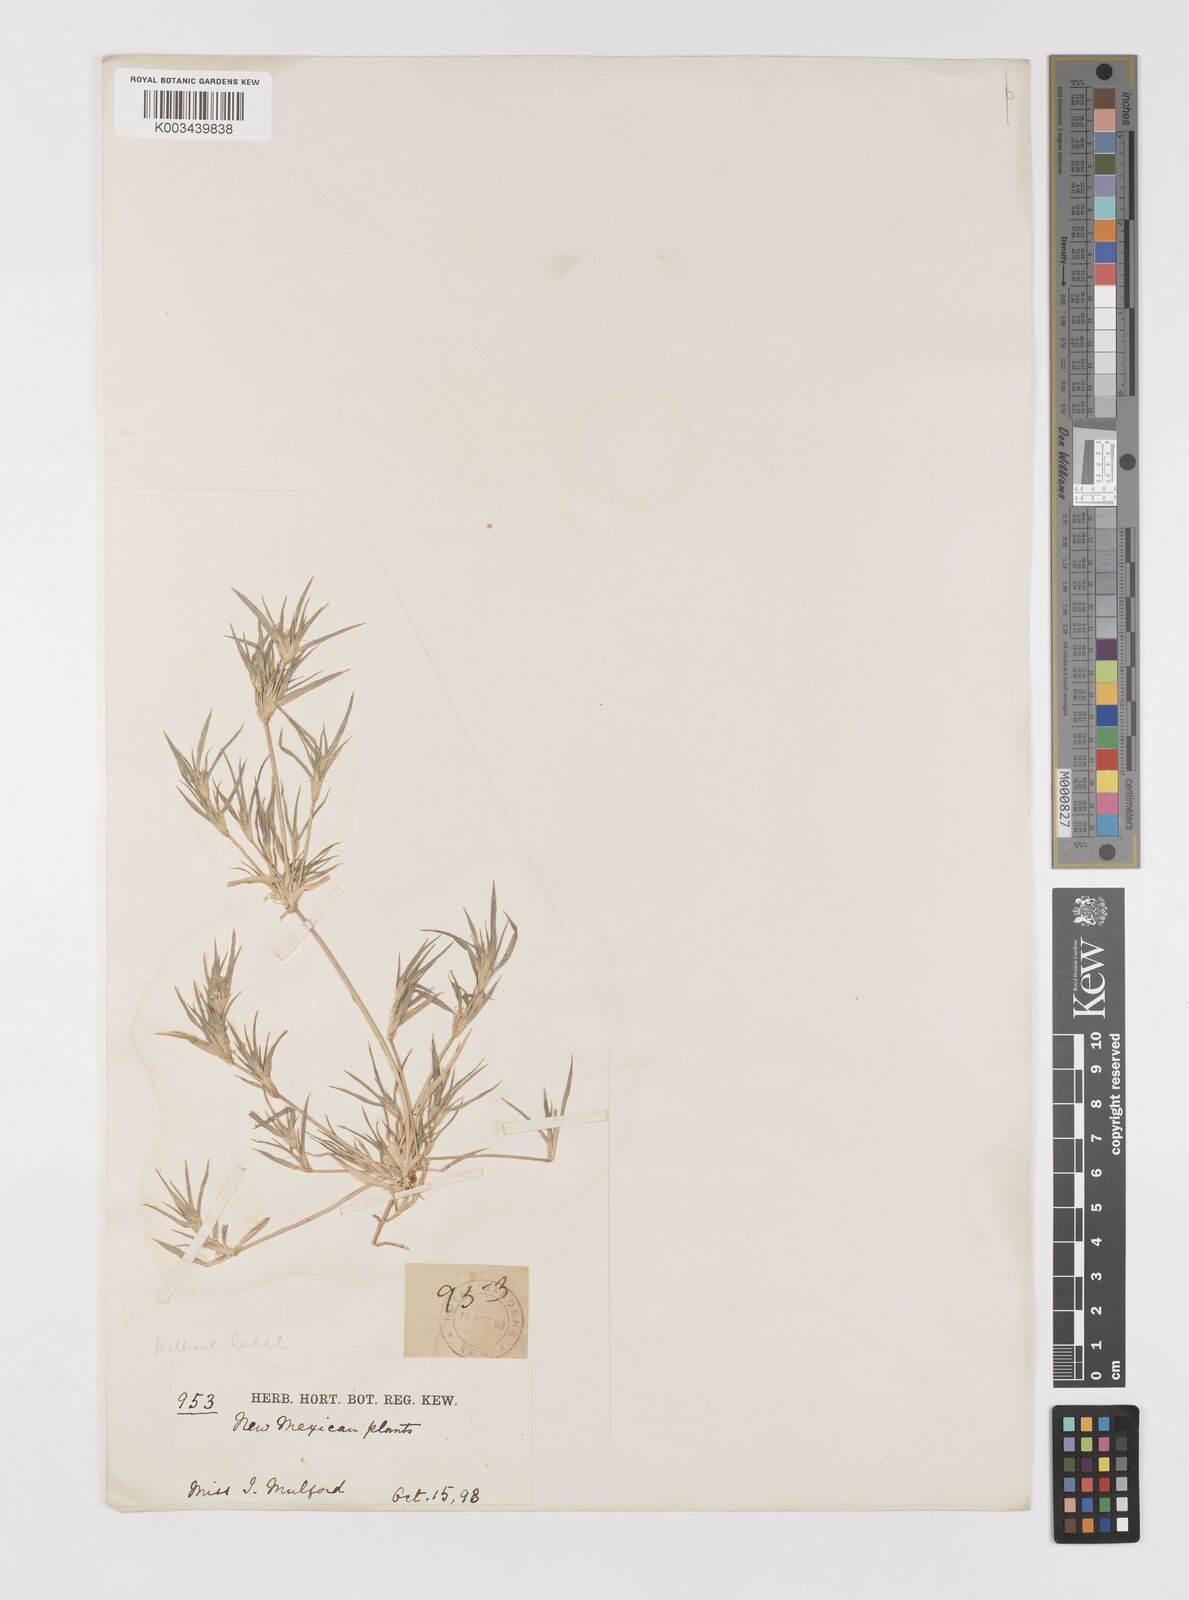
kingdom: Plantae
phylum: Tracheophyta
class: Liliopsida
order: Poales
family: Poaceae
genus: Bouteloua
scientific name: Bouteloua dactyloides
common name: Buffalo grass
